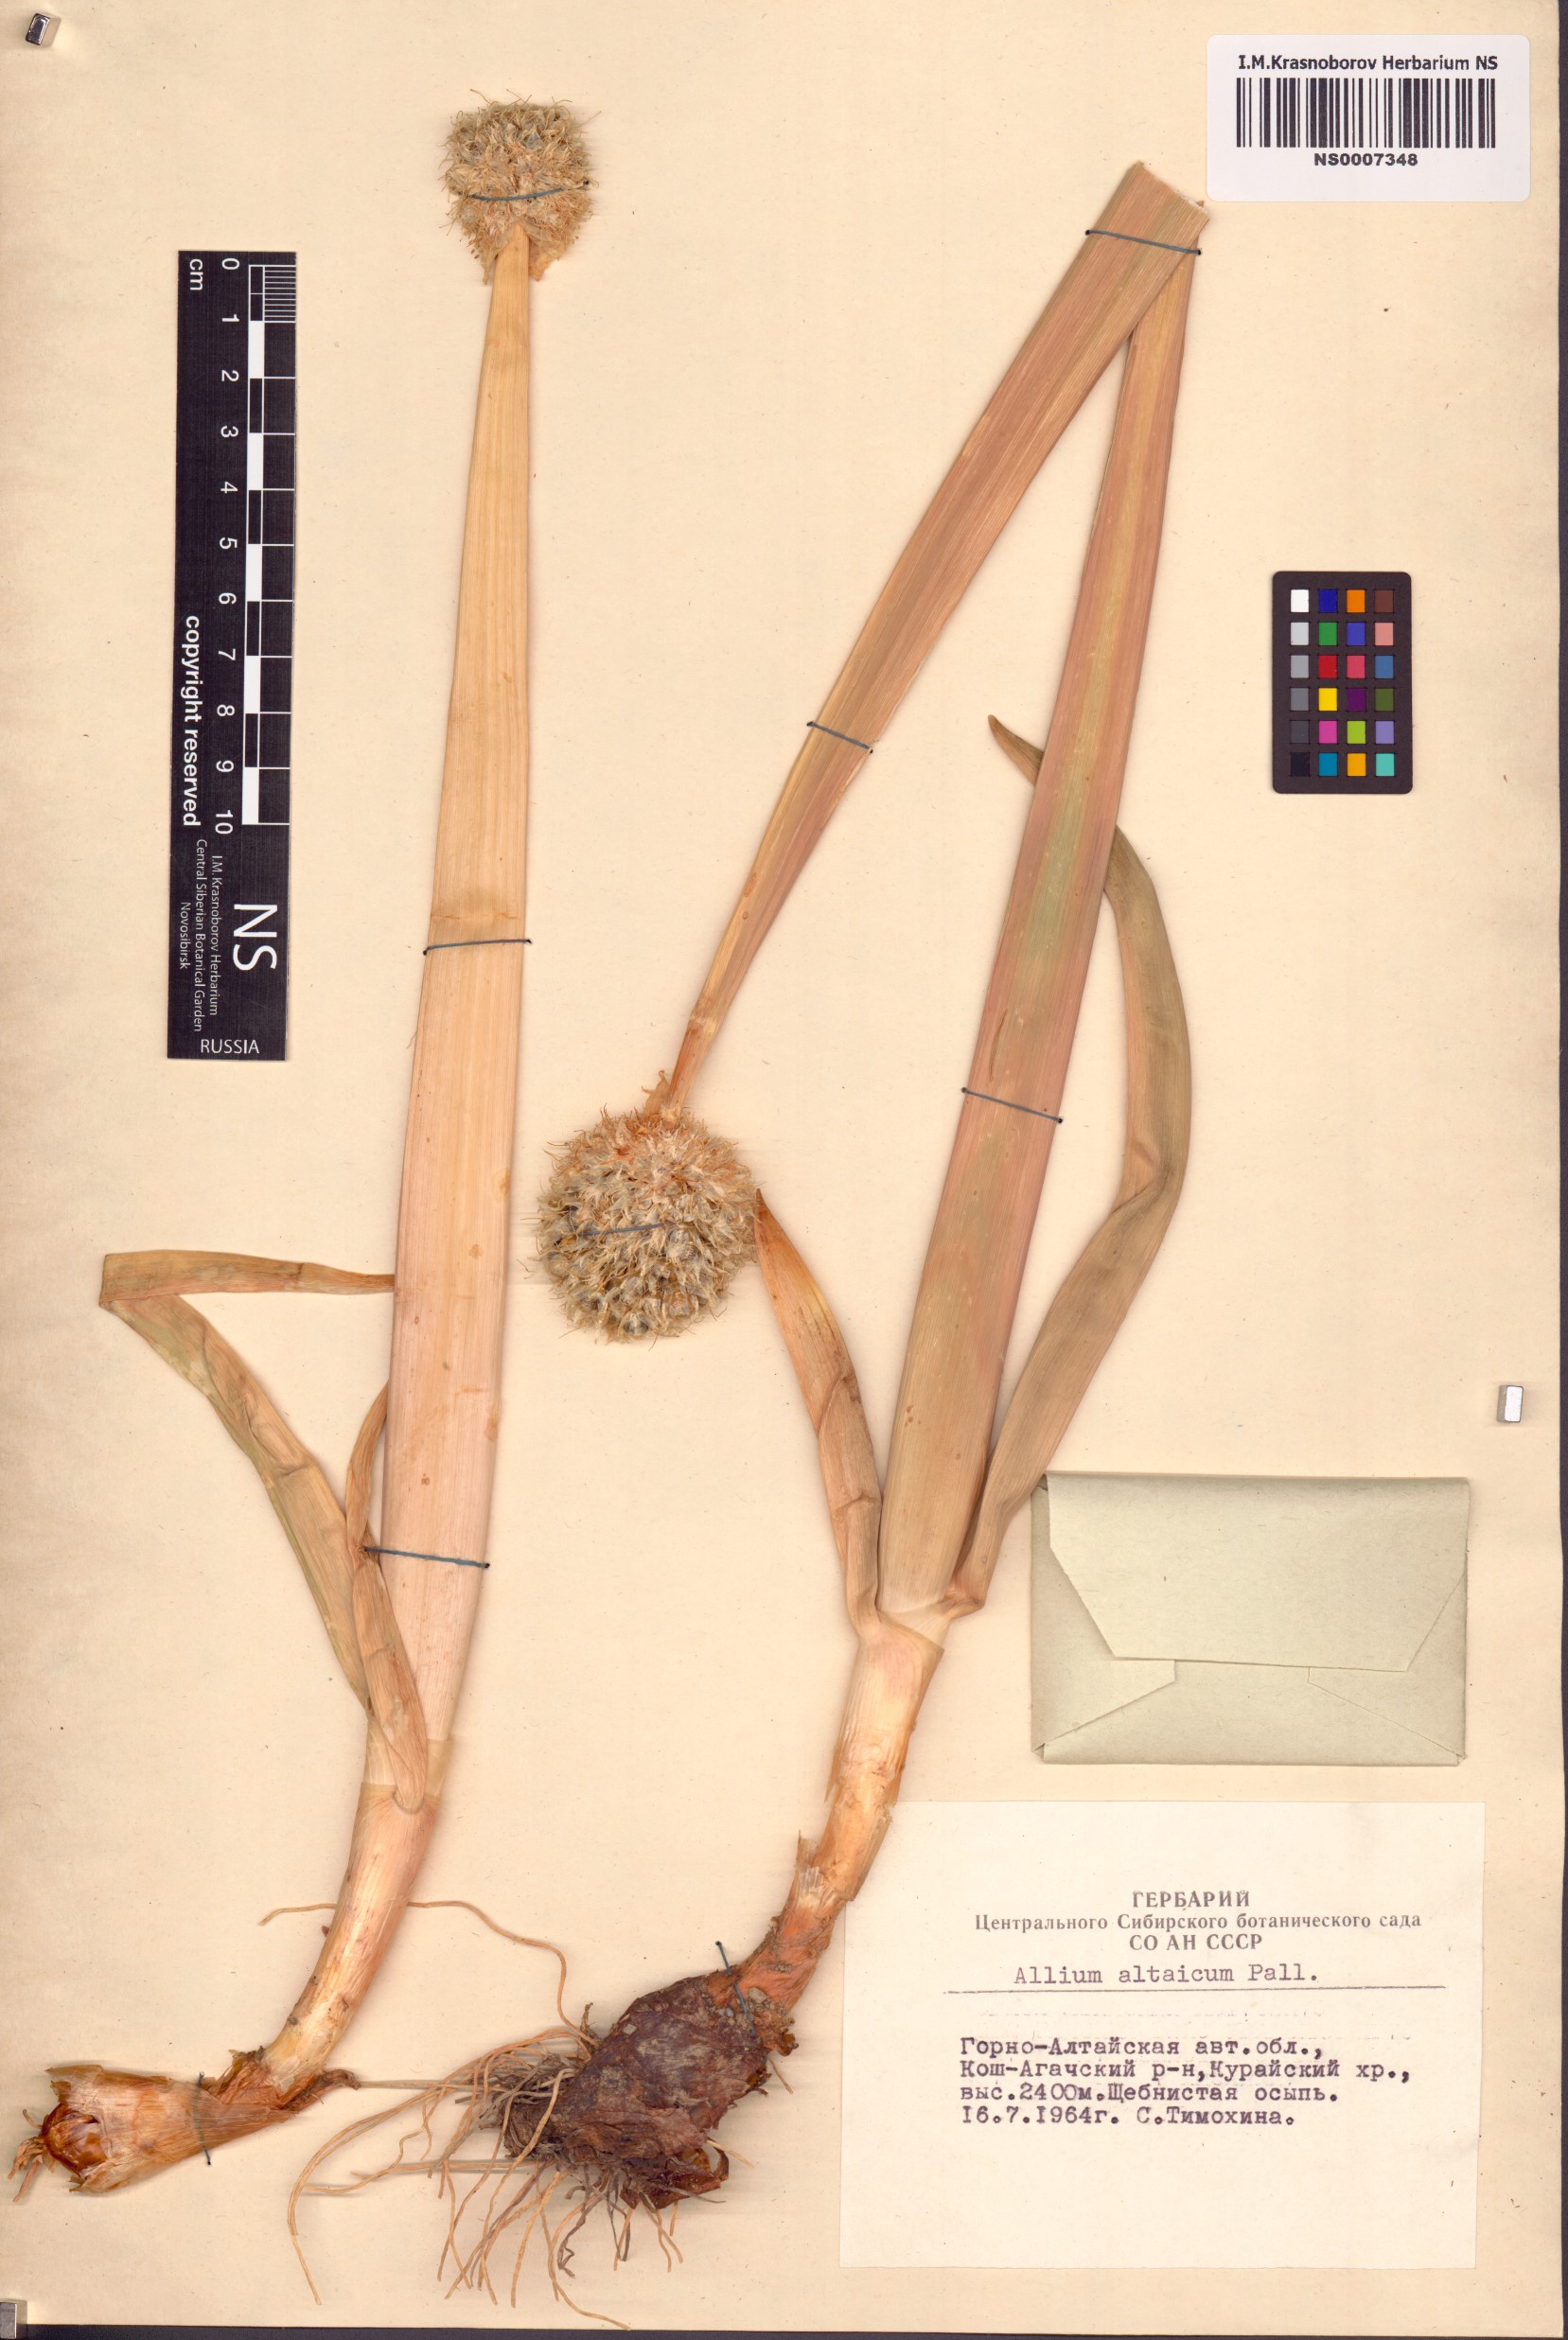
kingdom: Plantae
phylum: Tracheophyta
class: Liliopsida
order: Asparagales
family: Amaryllidaceae
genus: Allium
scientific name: Allium altaicum
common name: Altai onion
